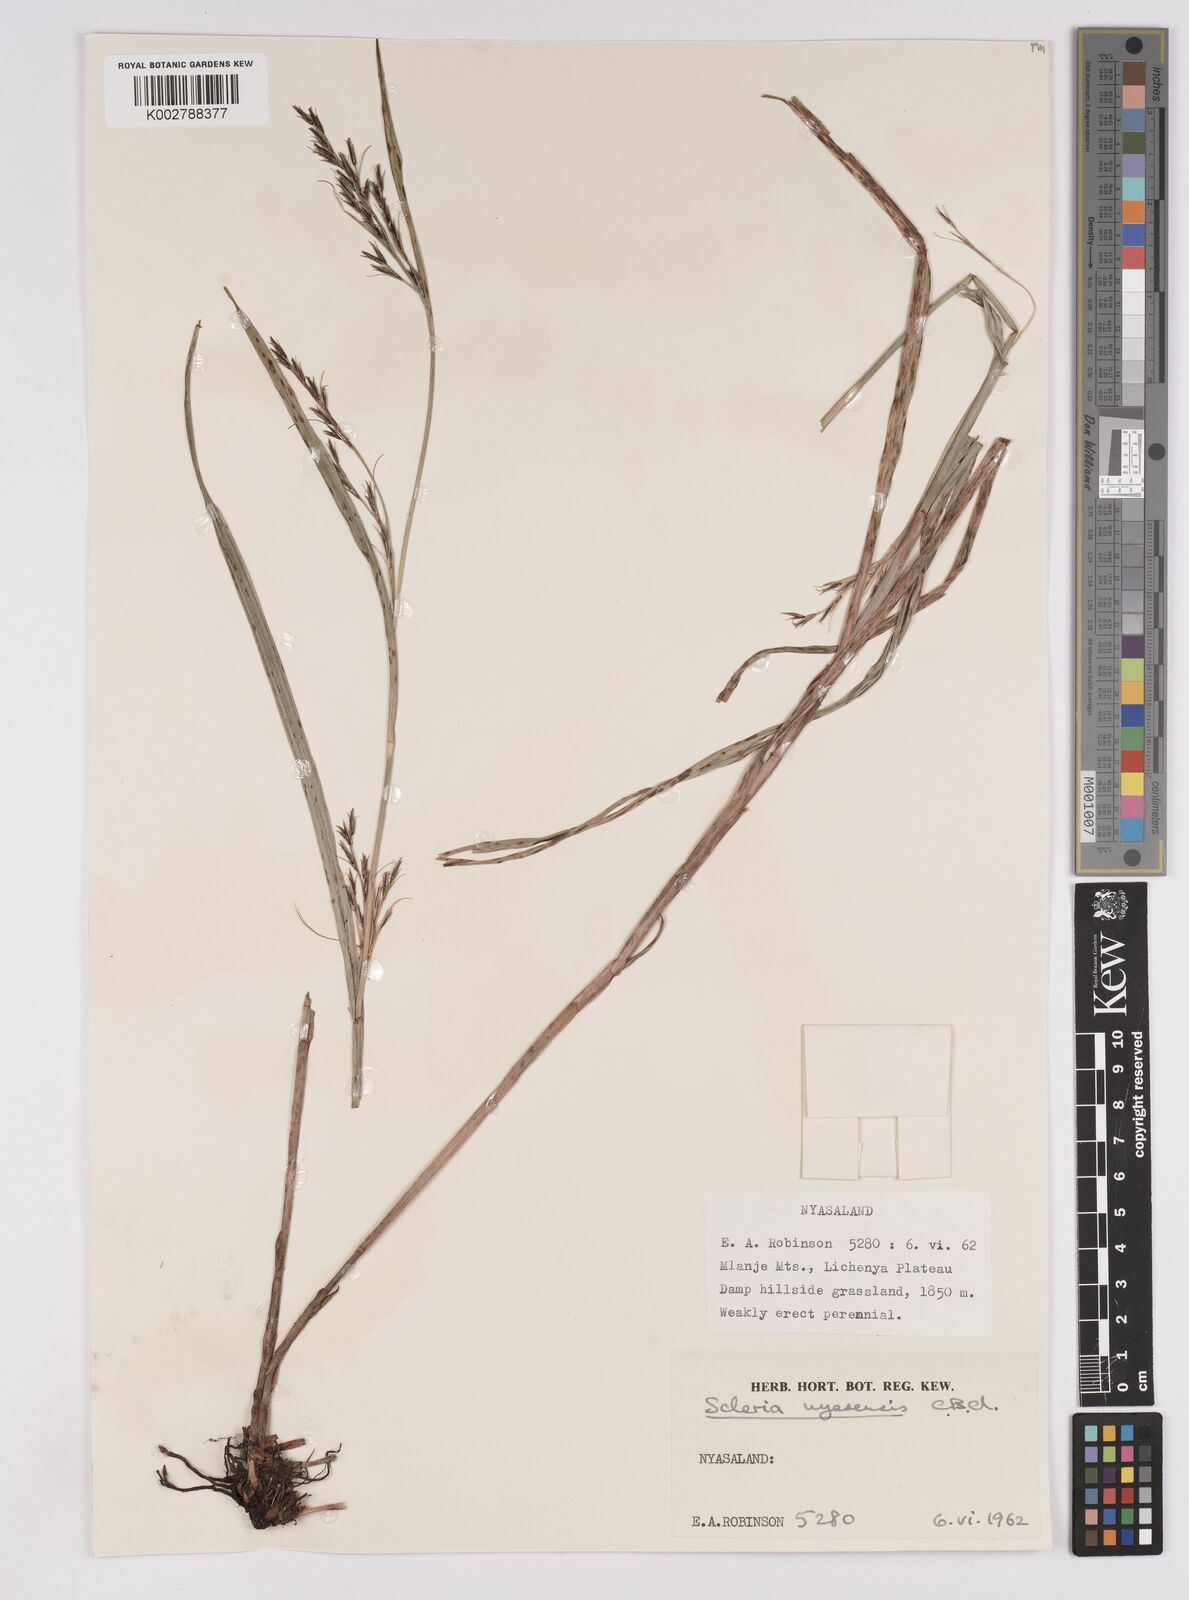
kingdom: Plantae
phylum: Tracheophyta
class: Liliopsida
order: Poales
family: Cyperaceae
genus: Scleria
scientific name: Scleria nyasensis
